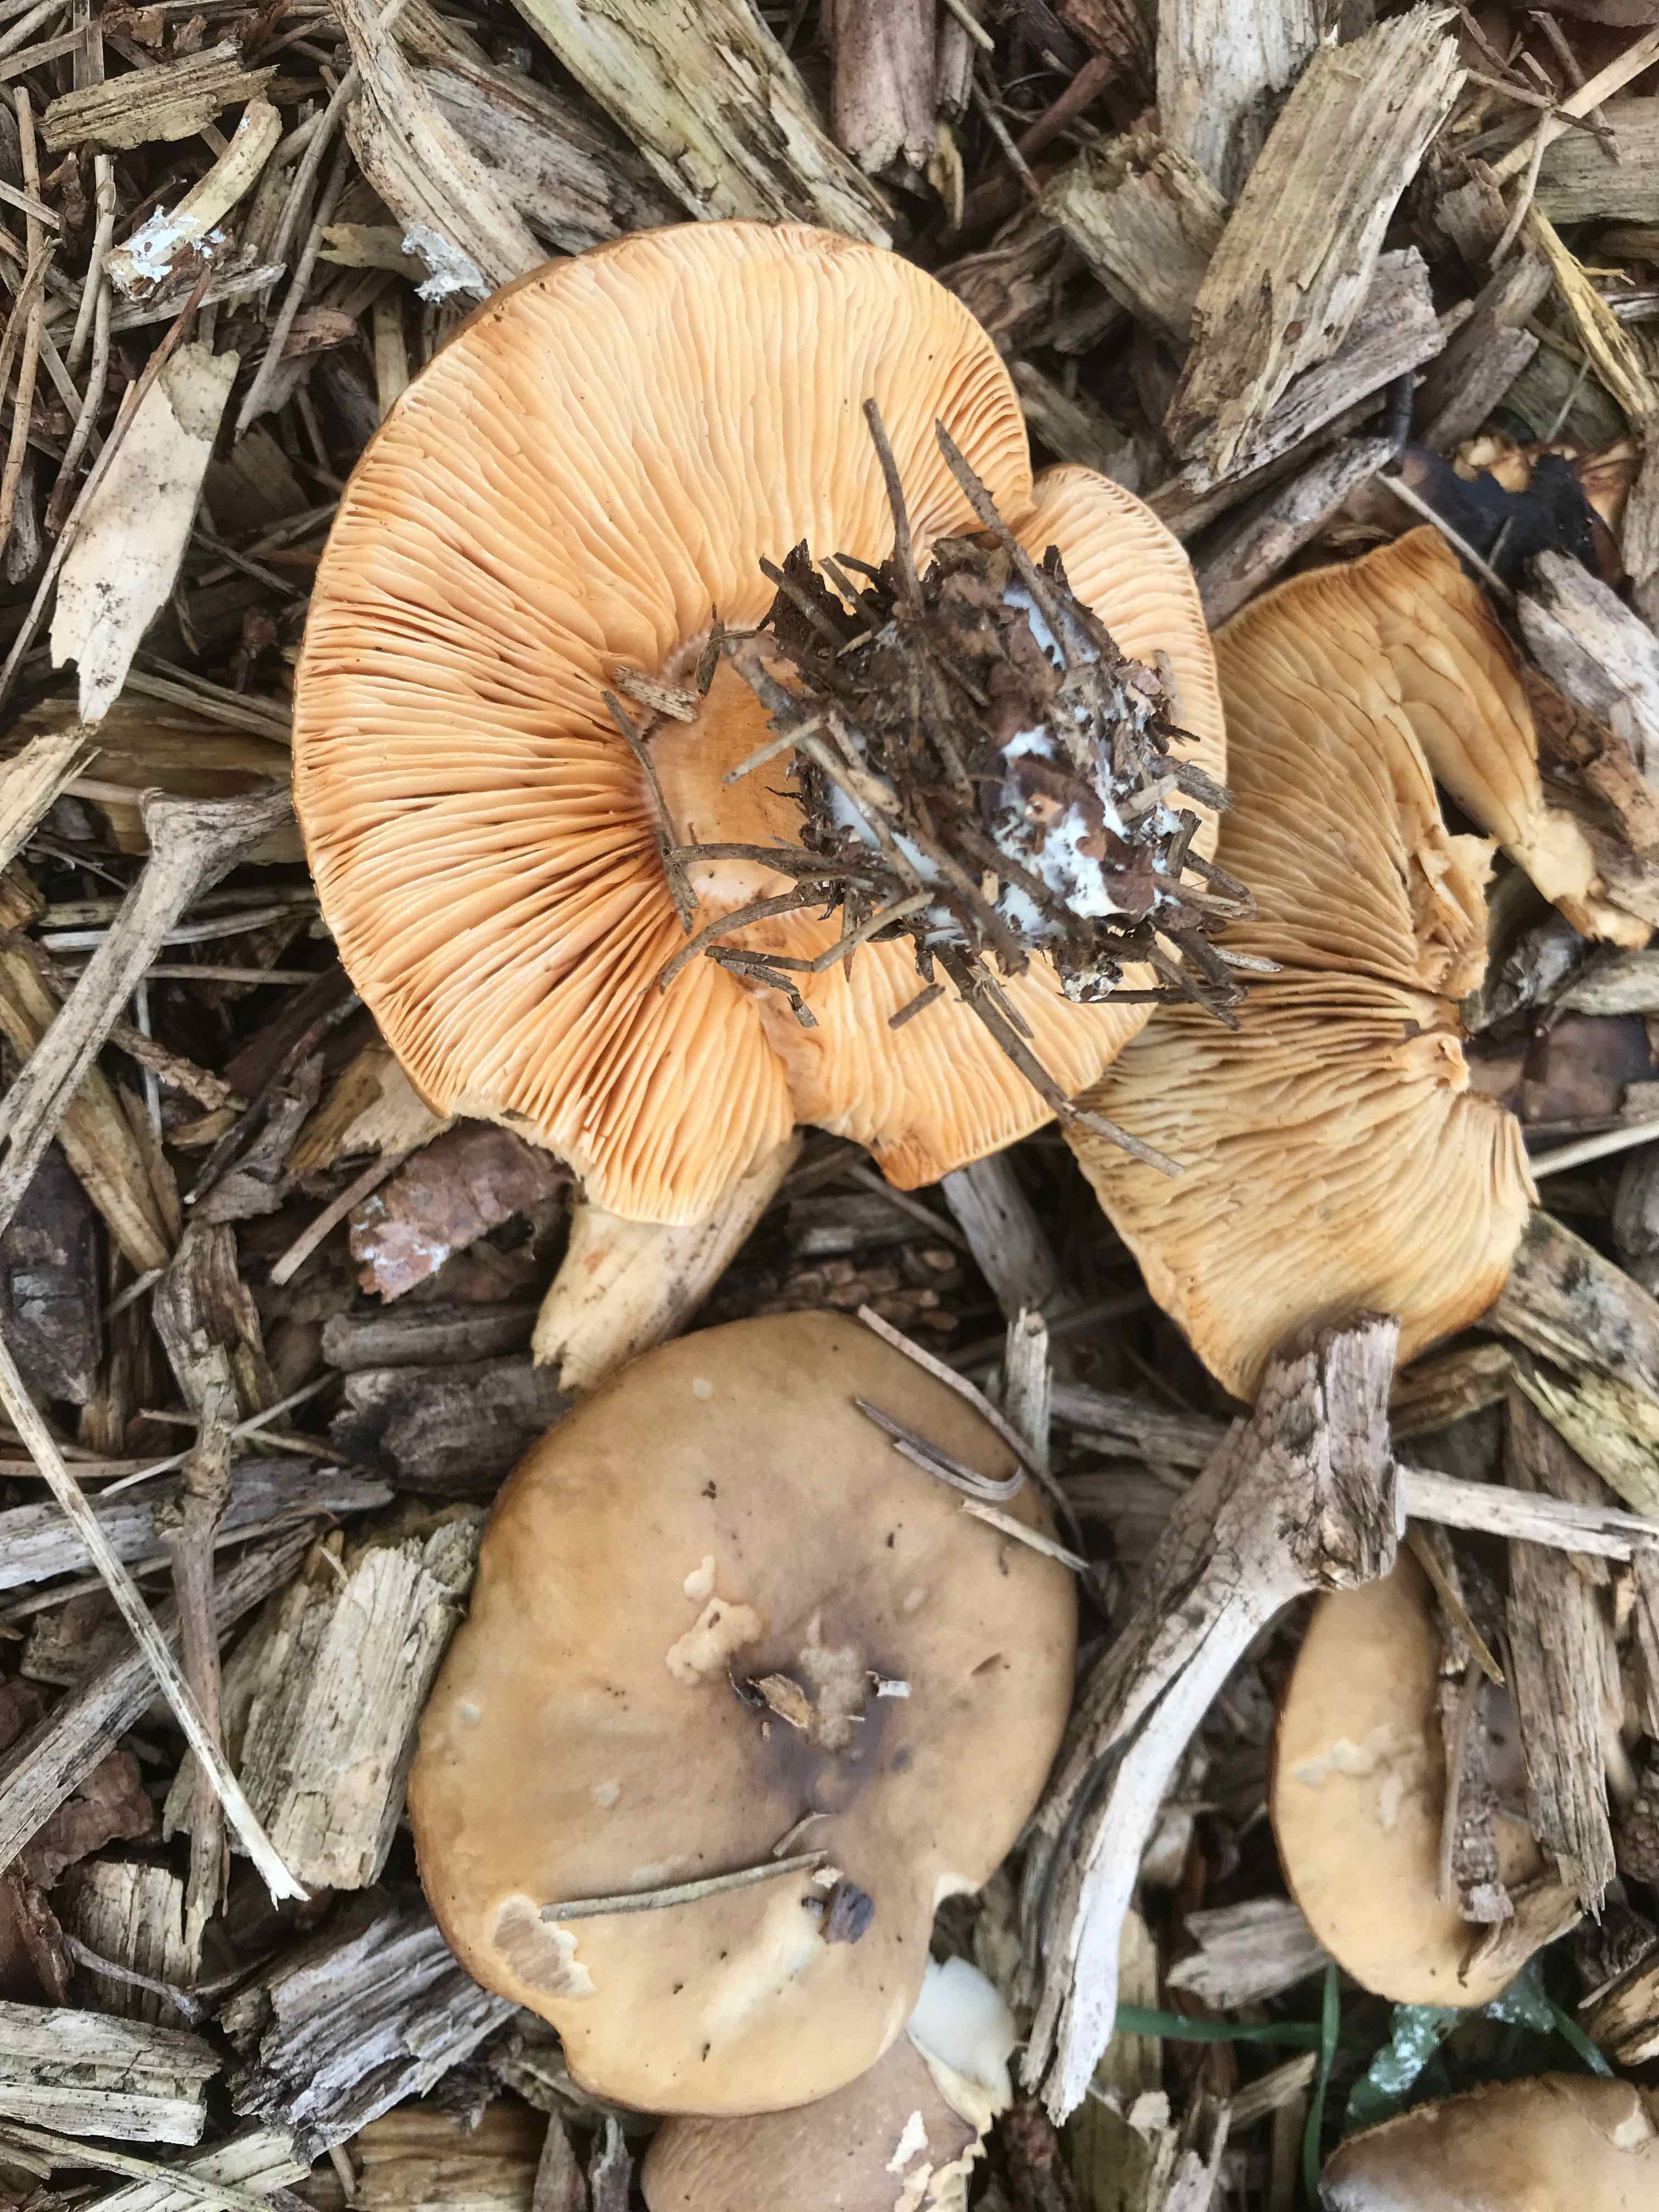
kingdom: Fungi
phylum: Basidiomycota
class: Agaricomycetes
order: Agaricales
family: Tricholomataceae
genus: Melanoleuca
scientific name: Melanoleuca cognata
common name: gyldengrå munkehat
